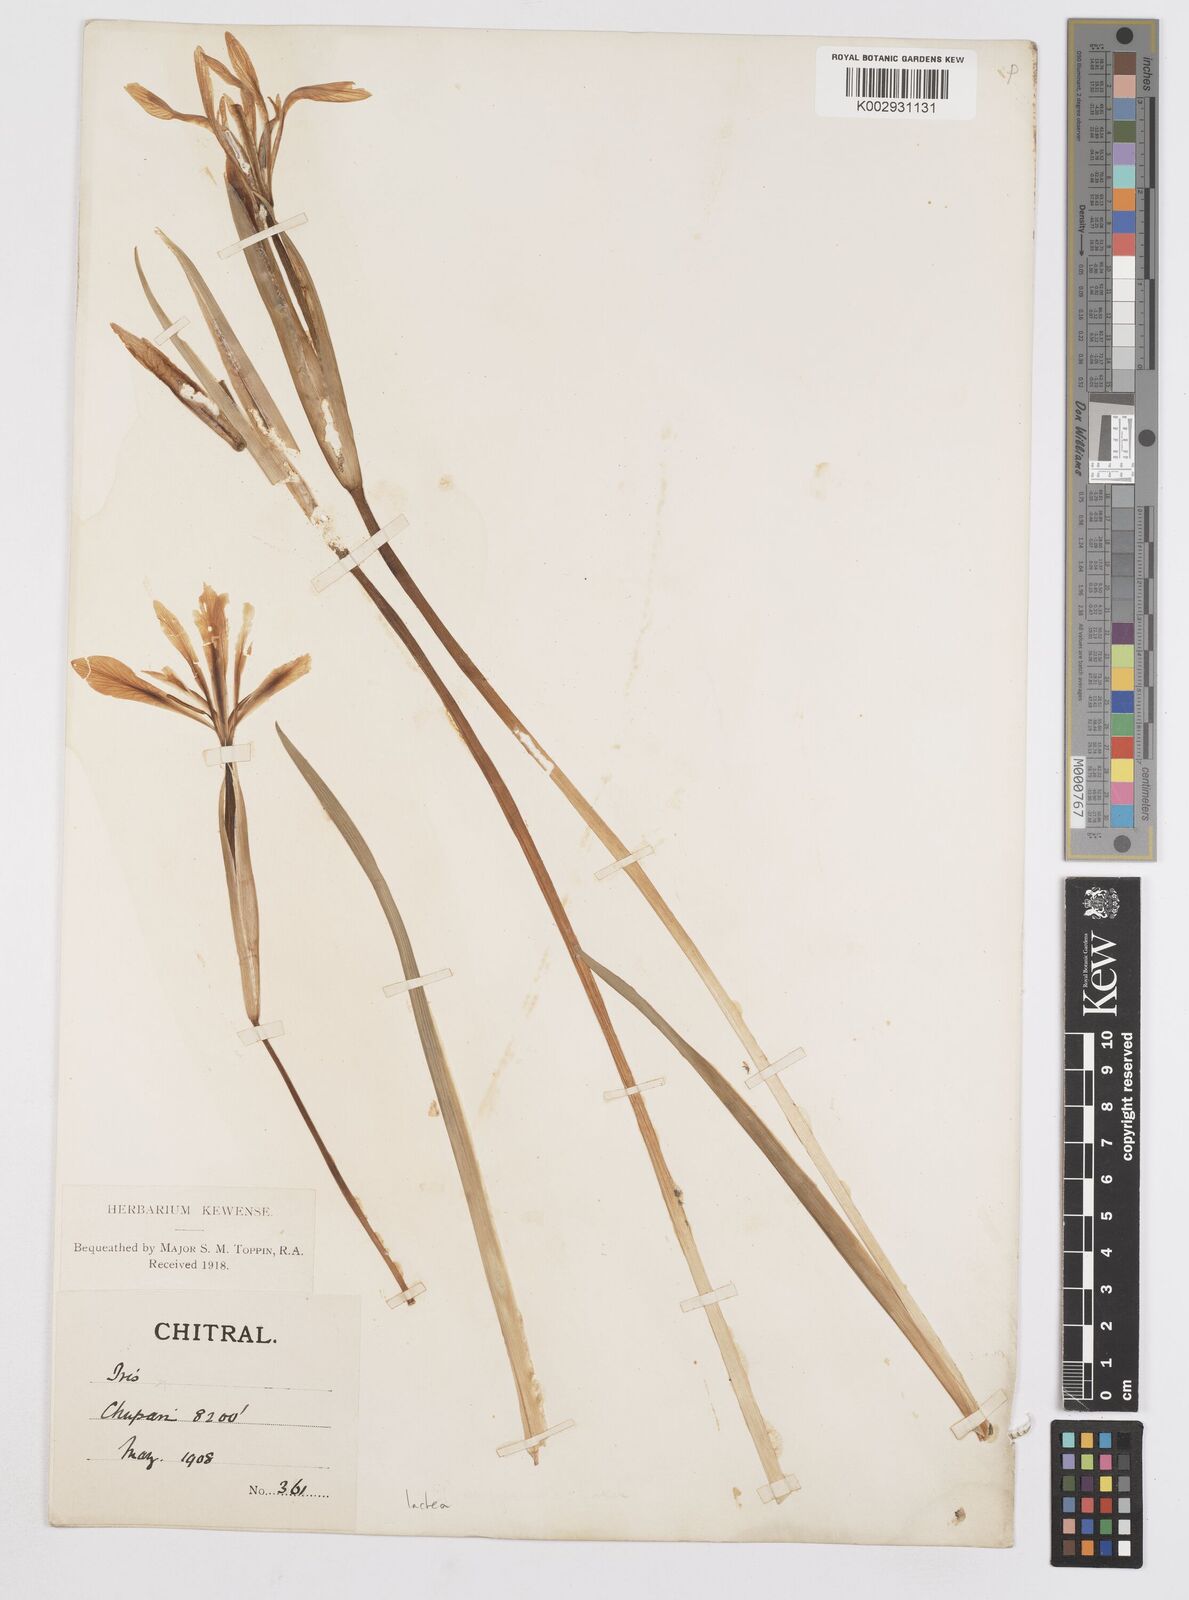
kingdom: Plantae
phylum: Tracheophyta
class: Liliopsida
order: Asparagales
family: Iridaceae
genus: Iris
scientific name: Iris lactea
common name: White-flower chinese iris
